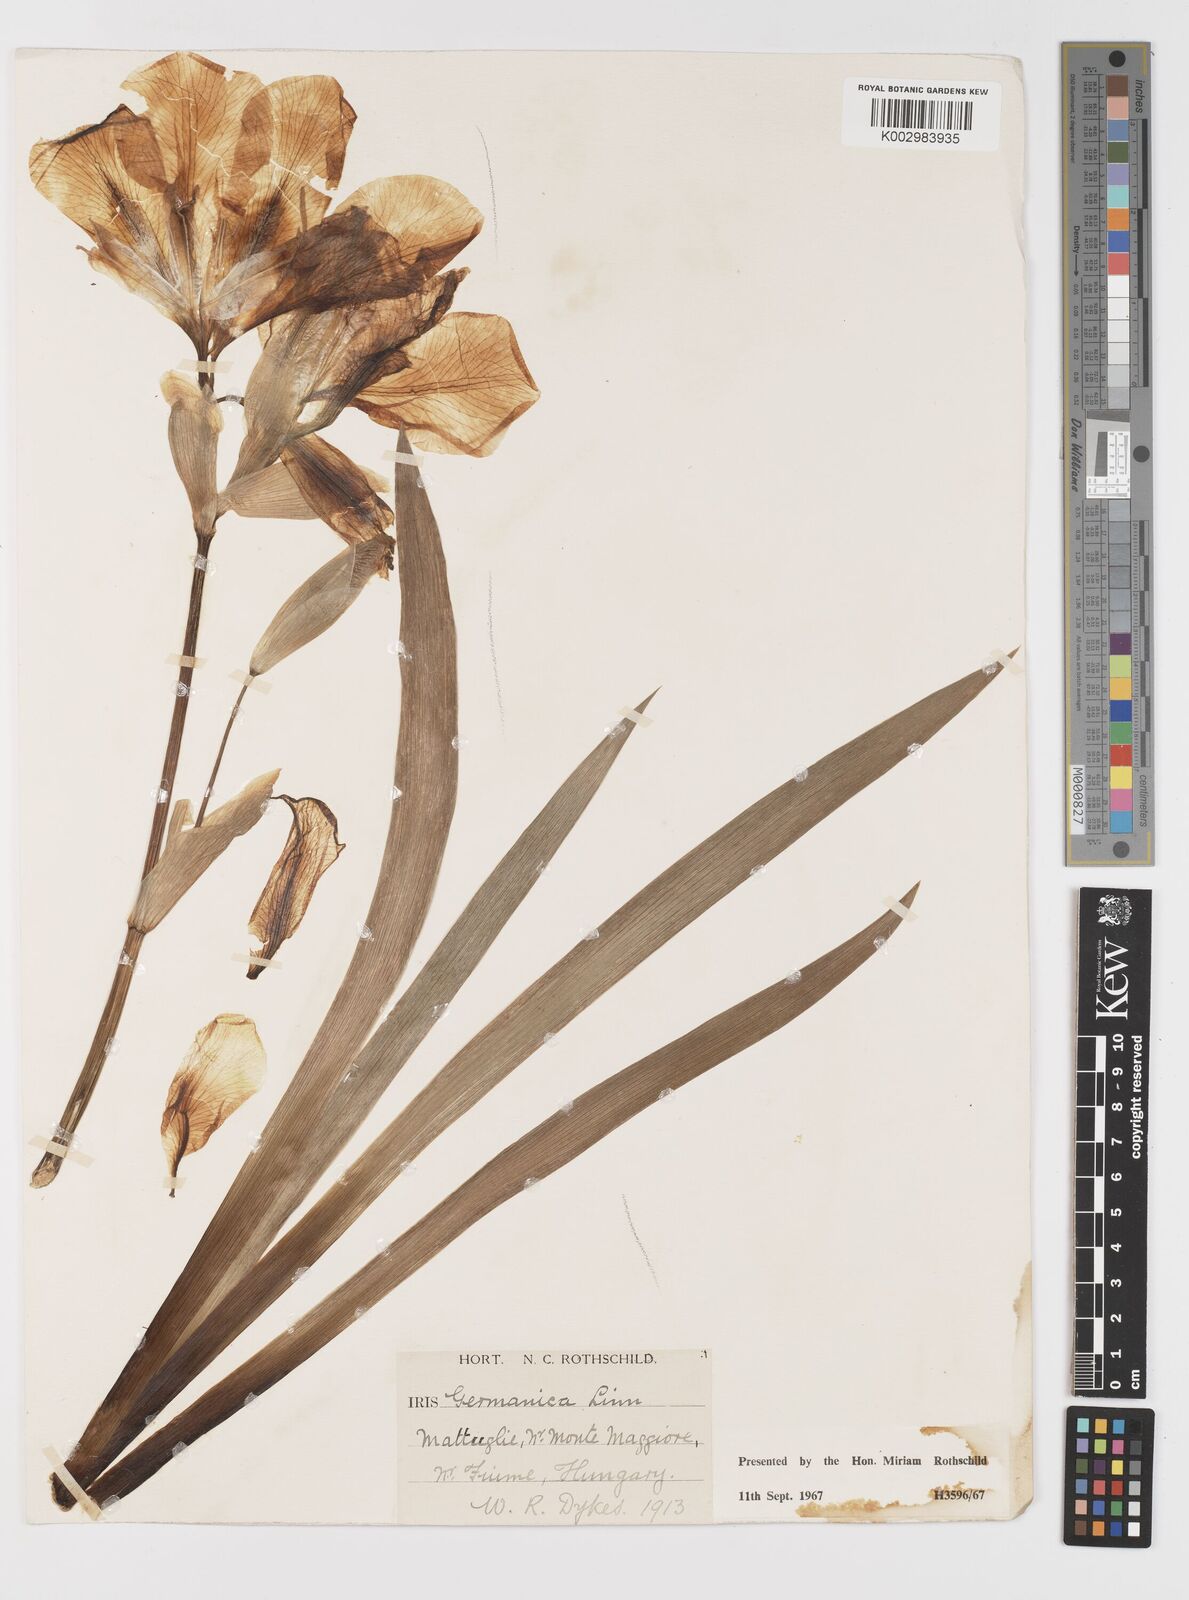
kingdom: Plantae
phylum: Tracheophyta
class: Liliopsida
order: Asparagales
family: Iridaceae
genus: Iris
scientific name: Iris germanica
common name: German iris
